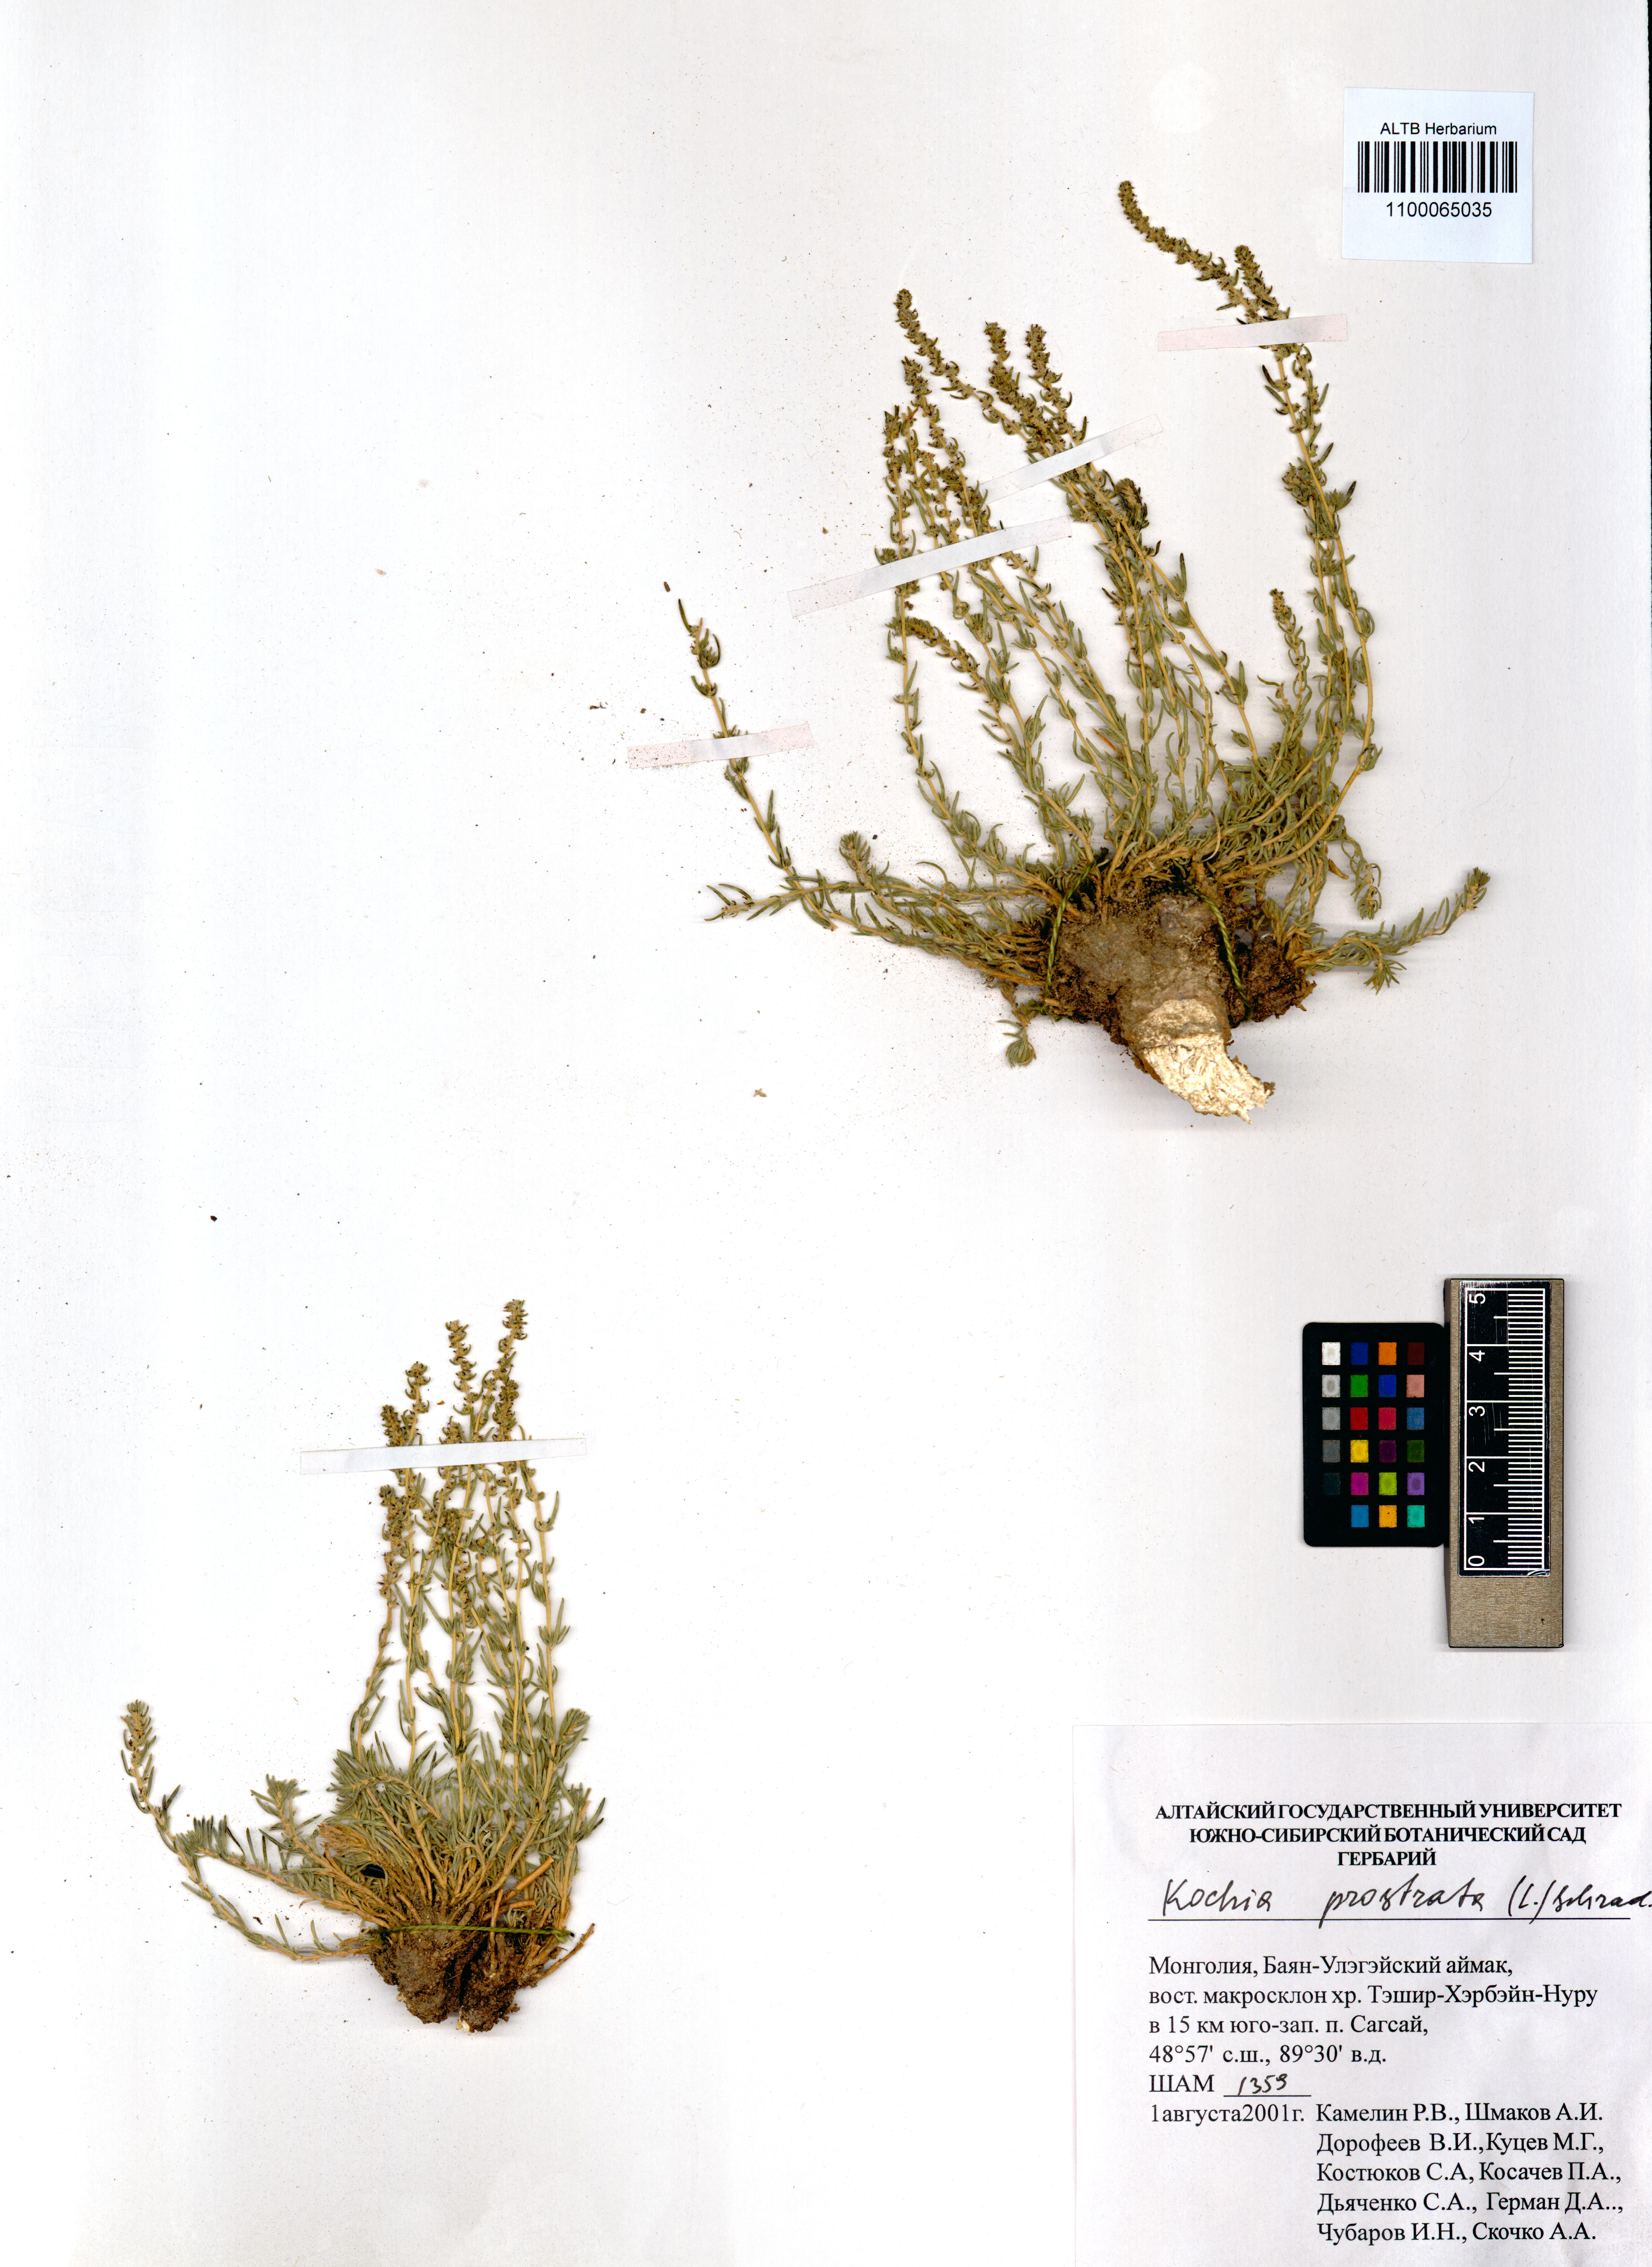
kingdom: Plantae
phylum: Tracheophyta
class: Magnoliopsida
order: Caryophyllales
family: Amaranthaceae
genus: Bassia
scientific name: Bassia prostrata
